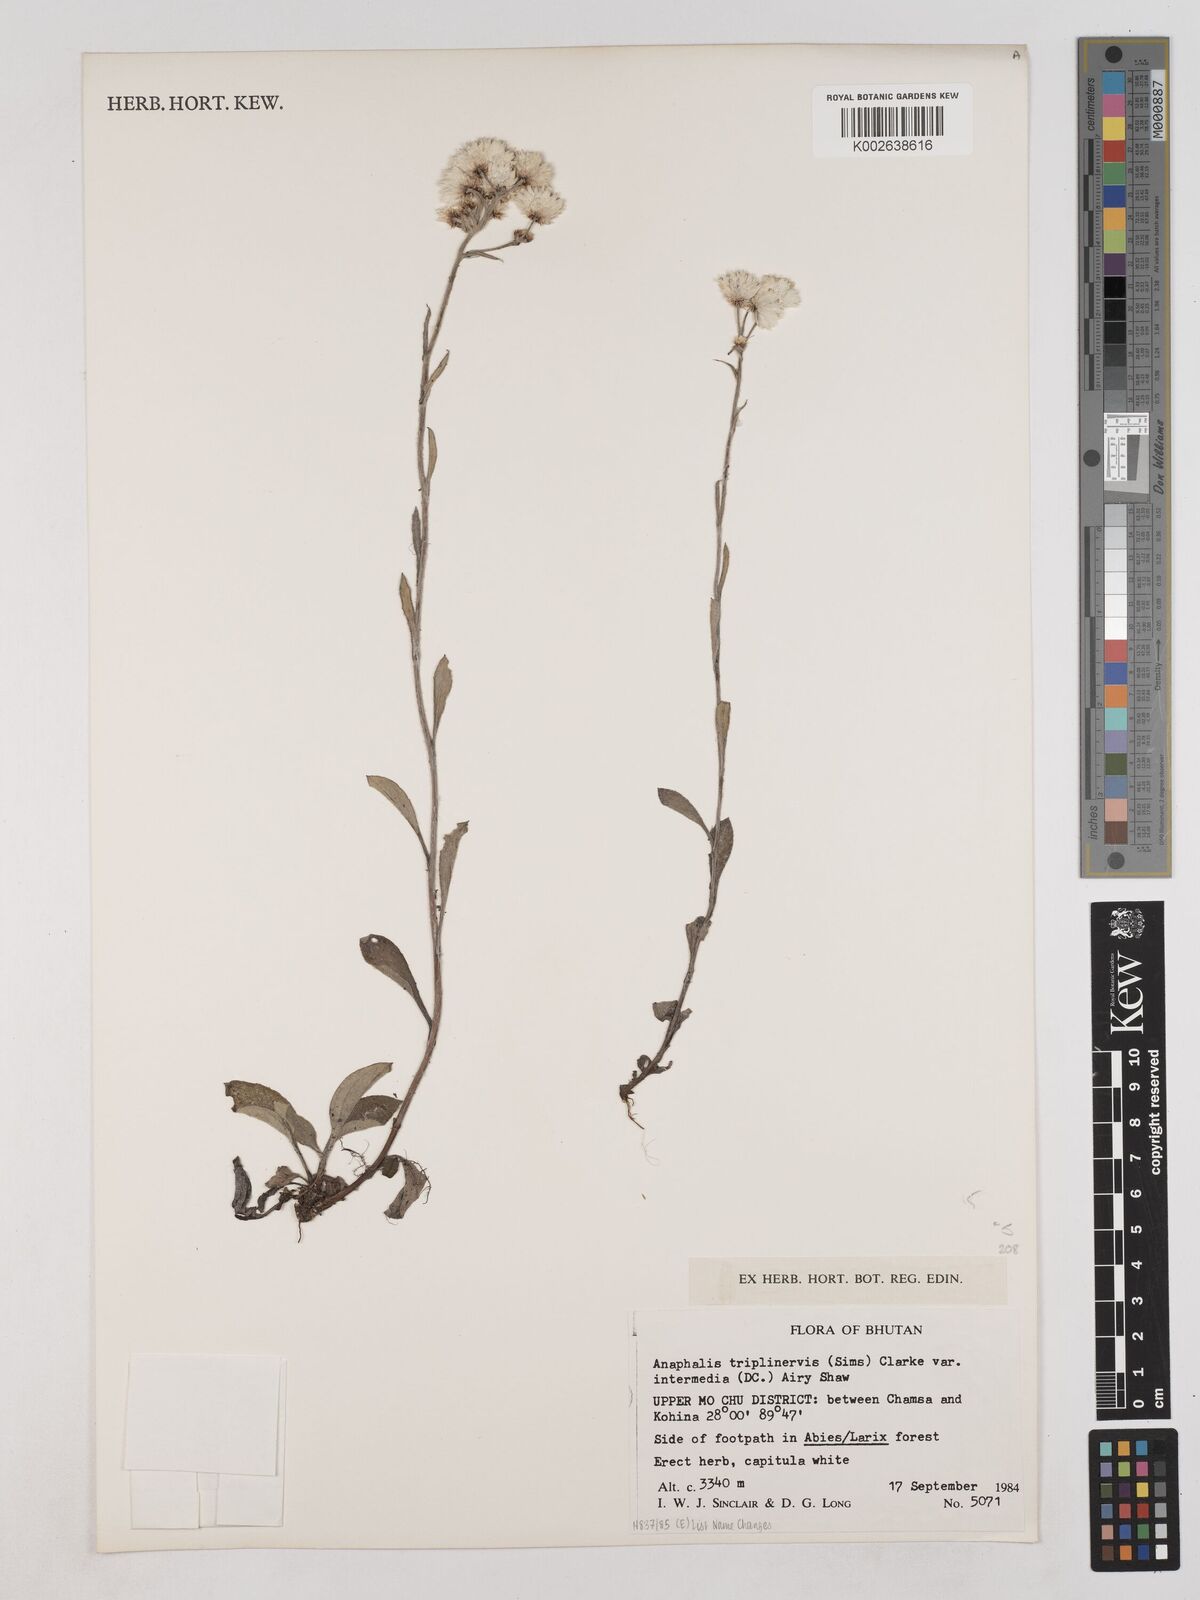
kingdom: Plantae
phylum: Tracheophyta
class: Magnoliopsida
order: Asterales
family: Asteraceae
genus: Anaphalis
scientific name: Anaphalis nepalensis
